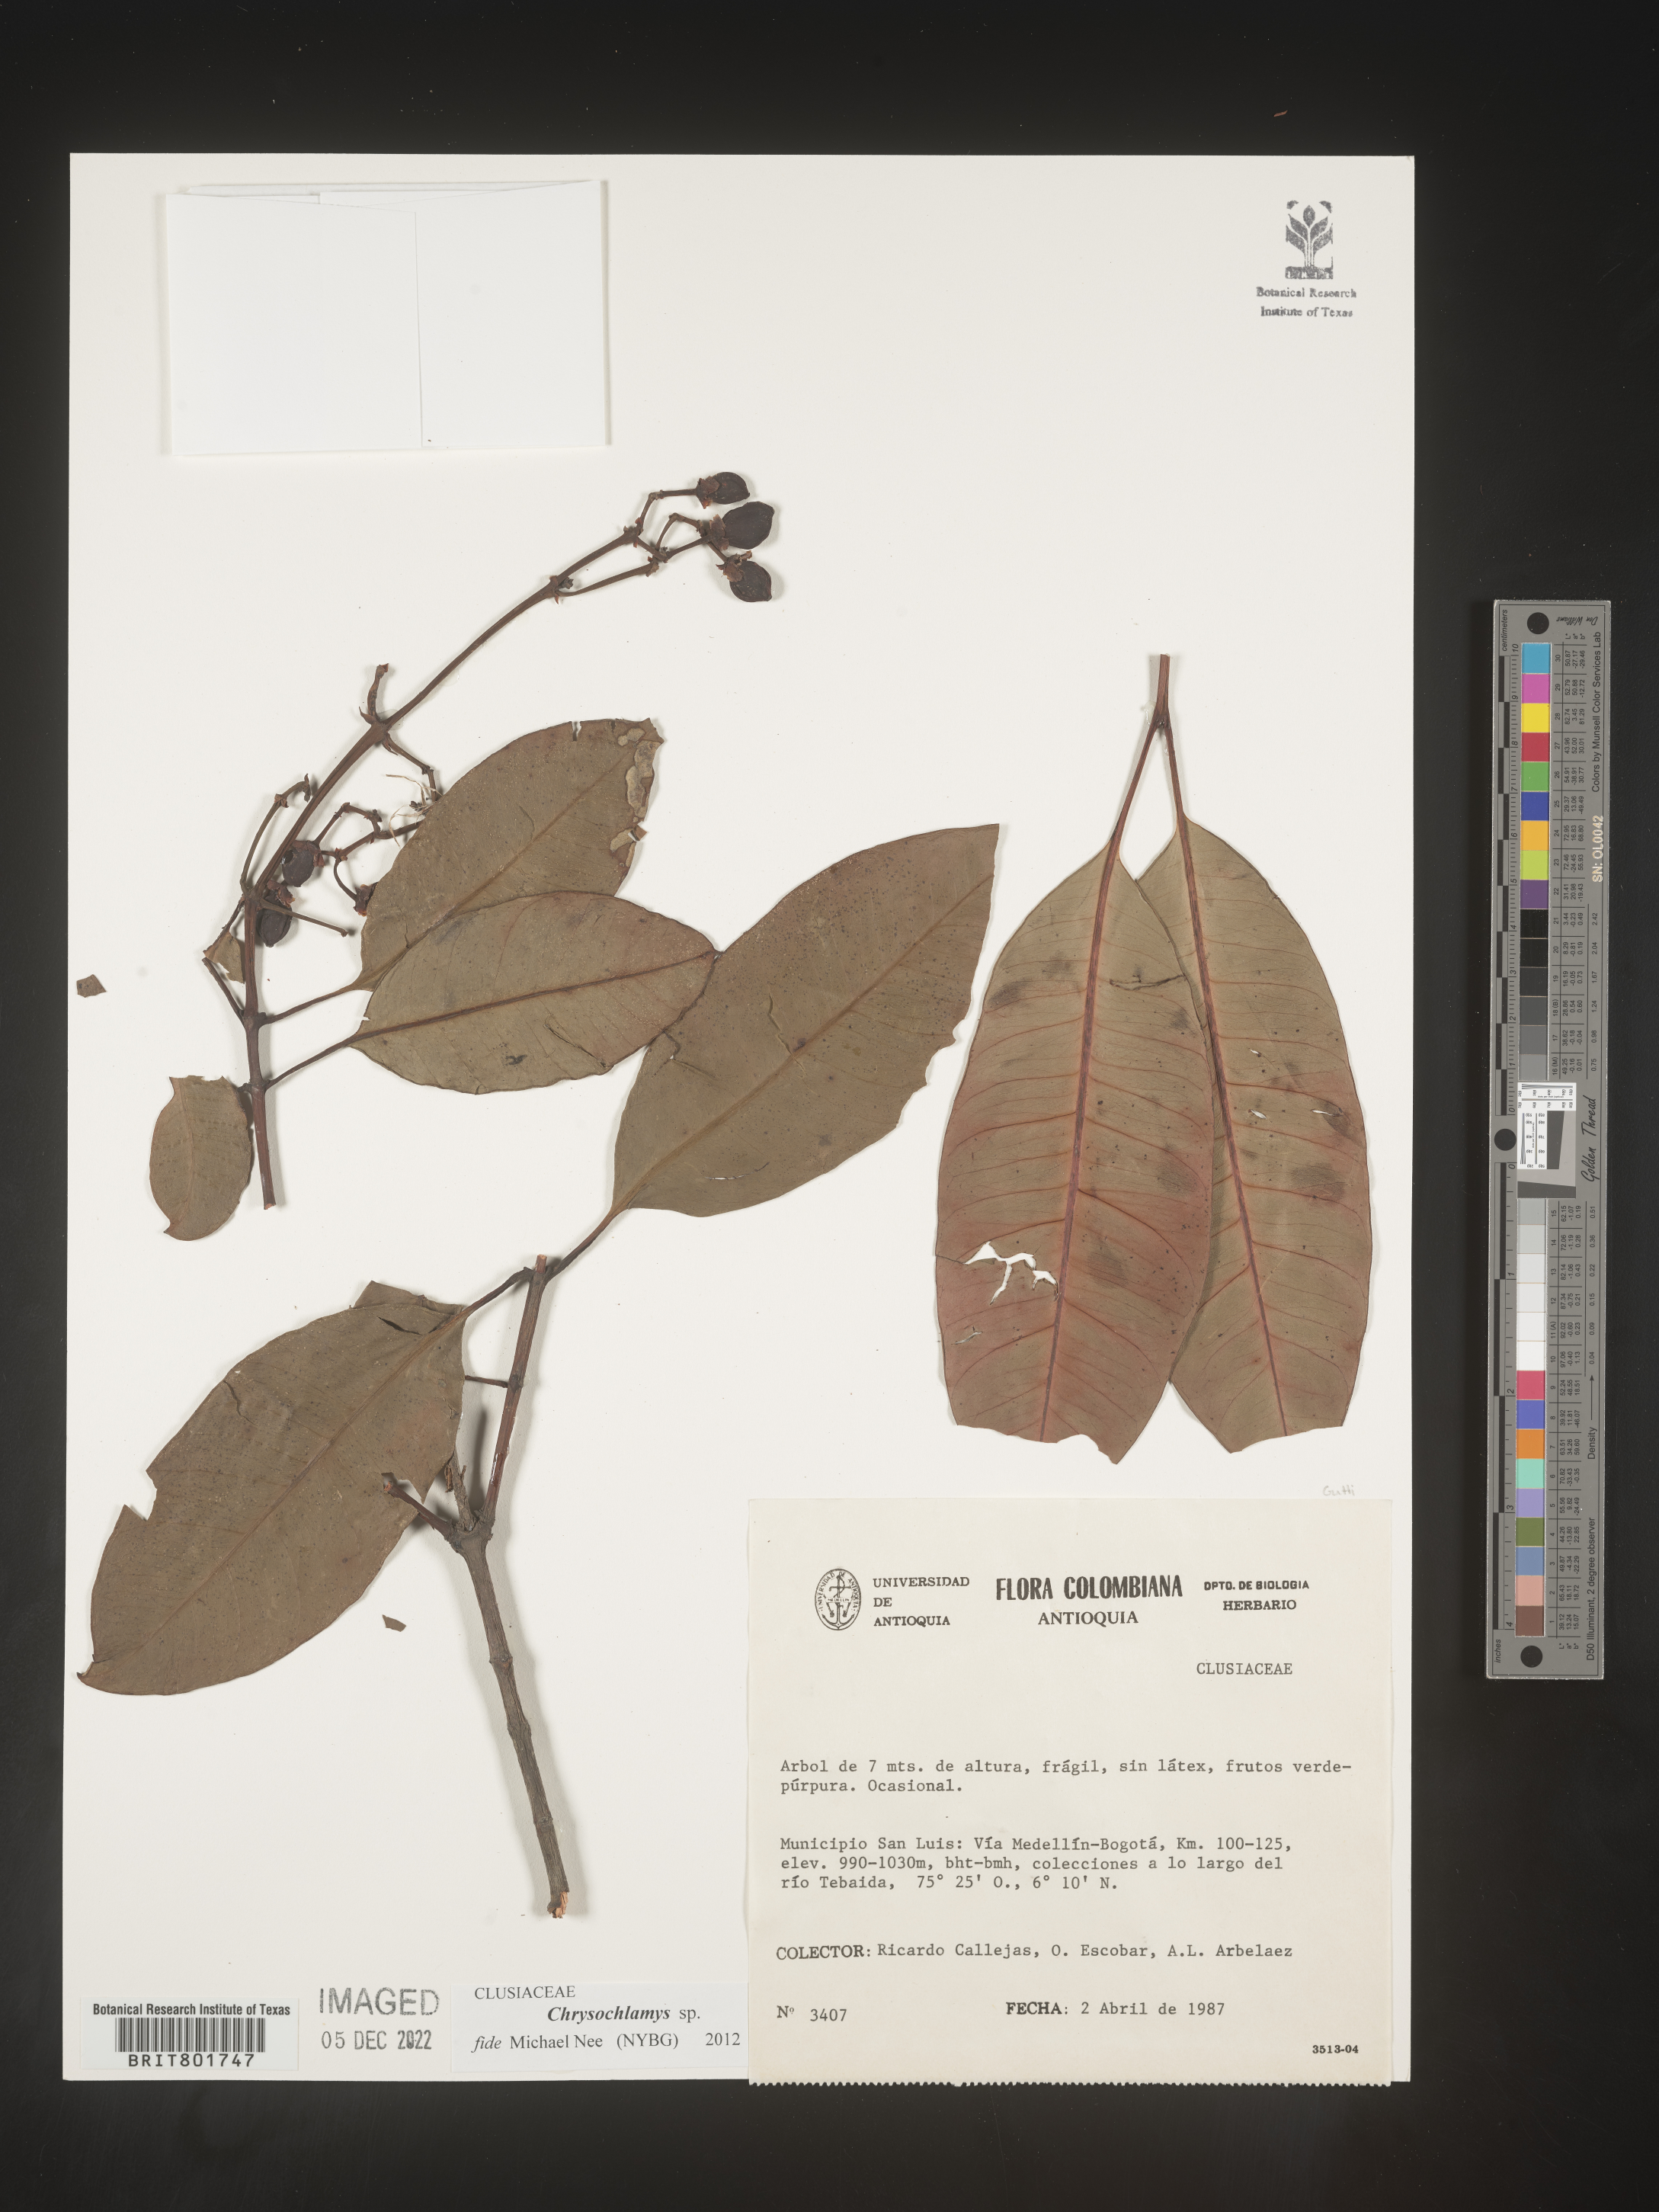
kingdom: Plantae
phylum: Tracheophyta
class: Magnoliopsida
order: Malpighiales
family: Clusiaceae
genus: Chrysochlamys
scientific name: Chrysochlamys
